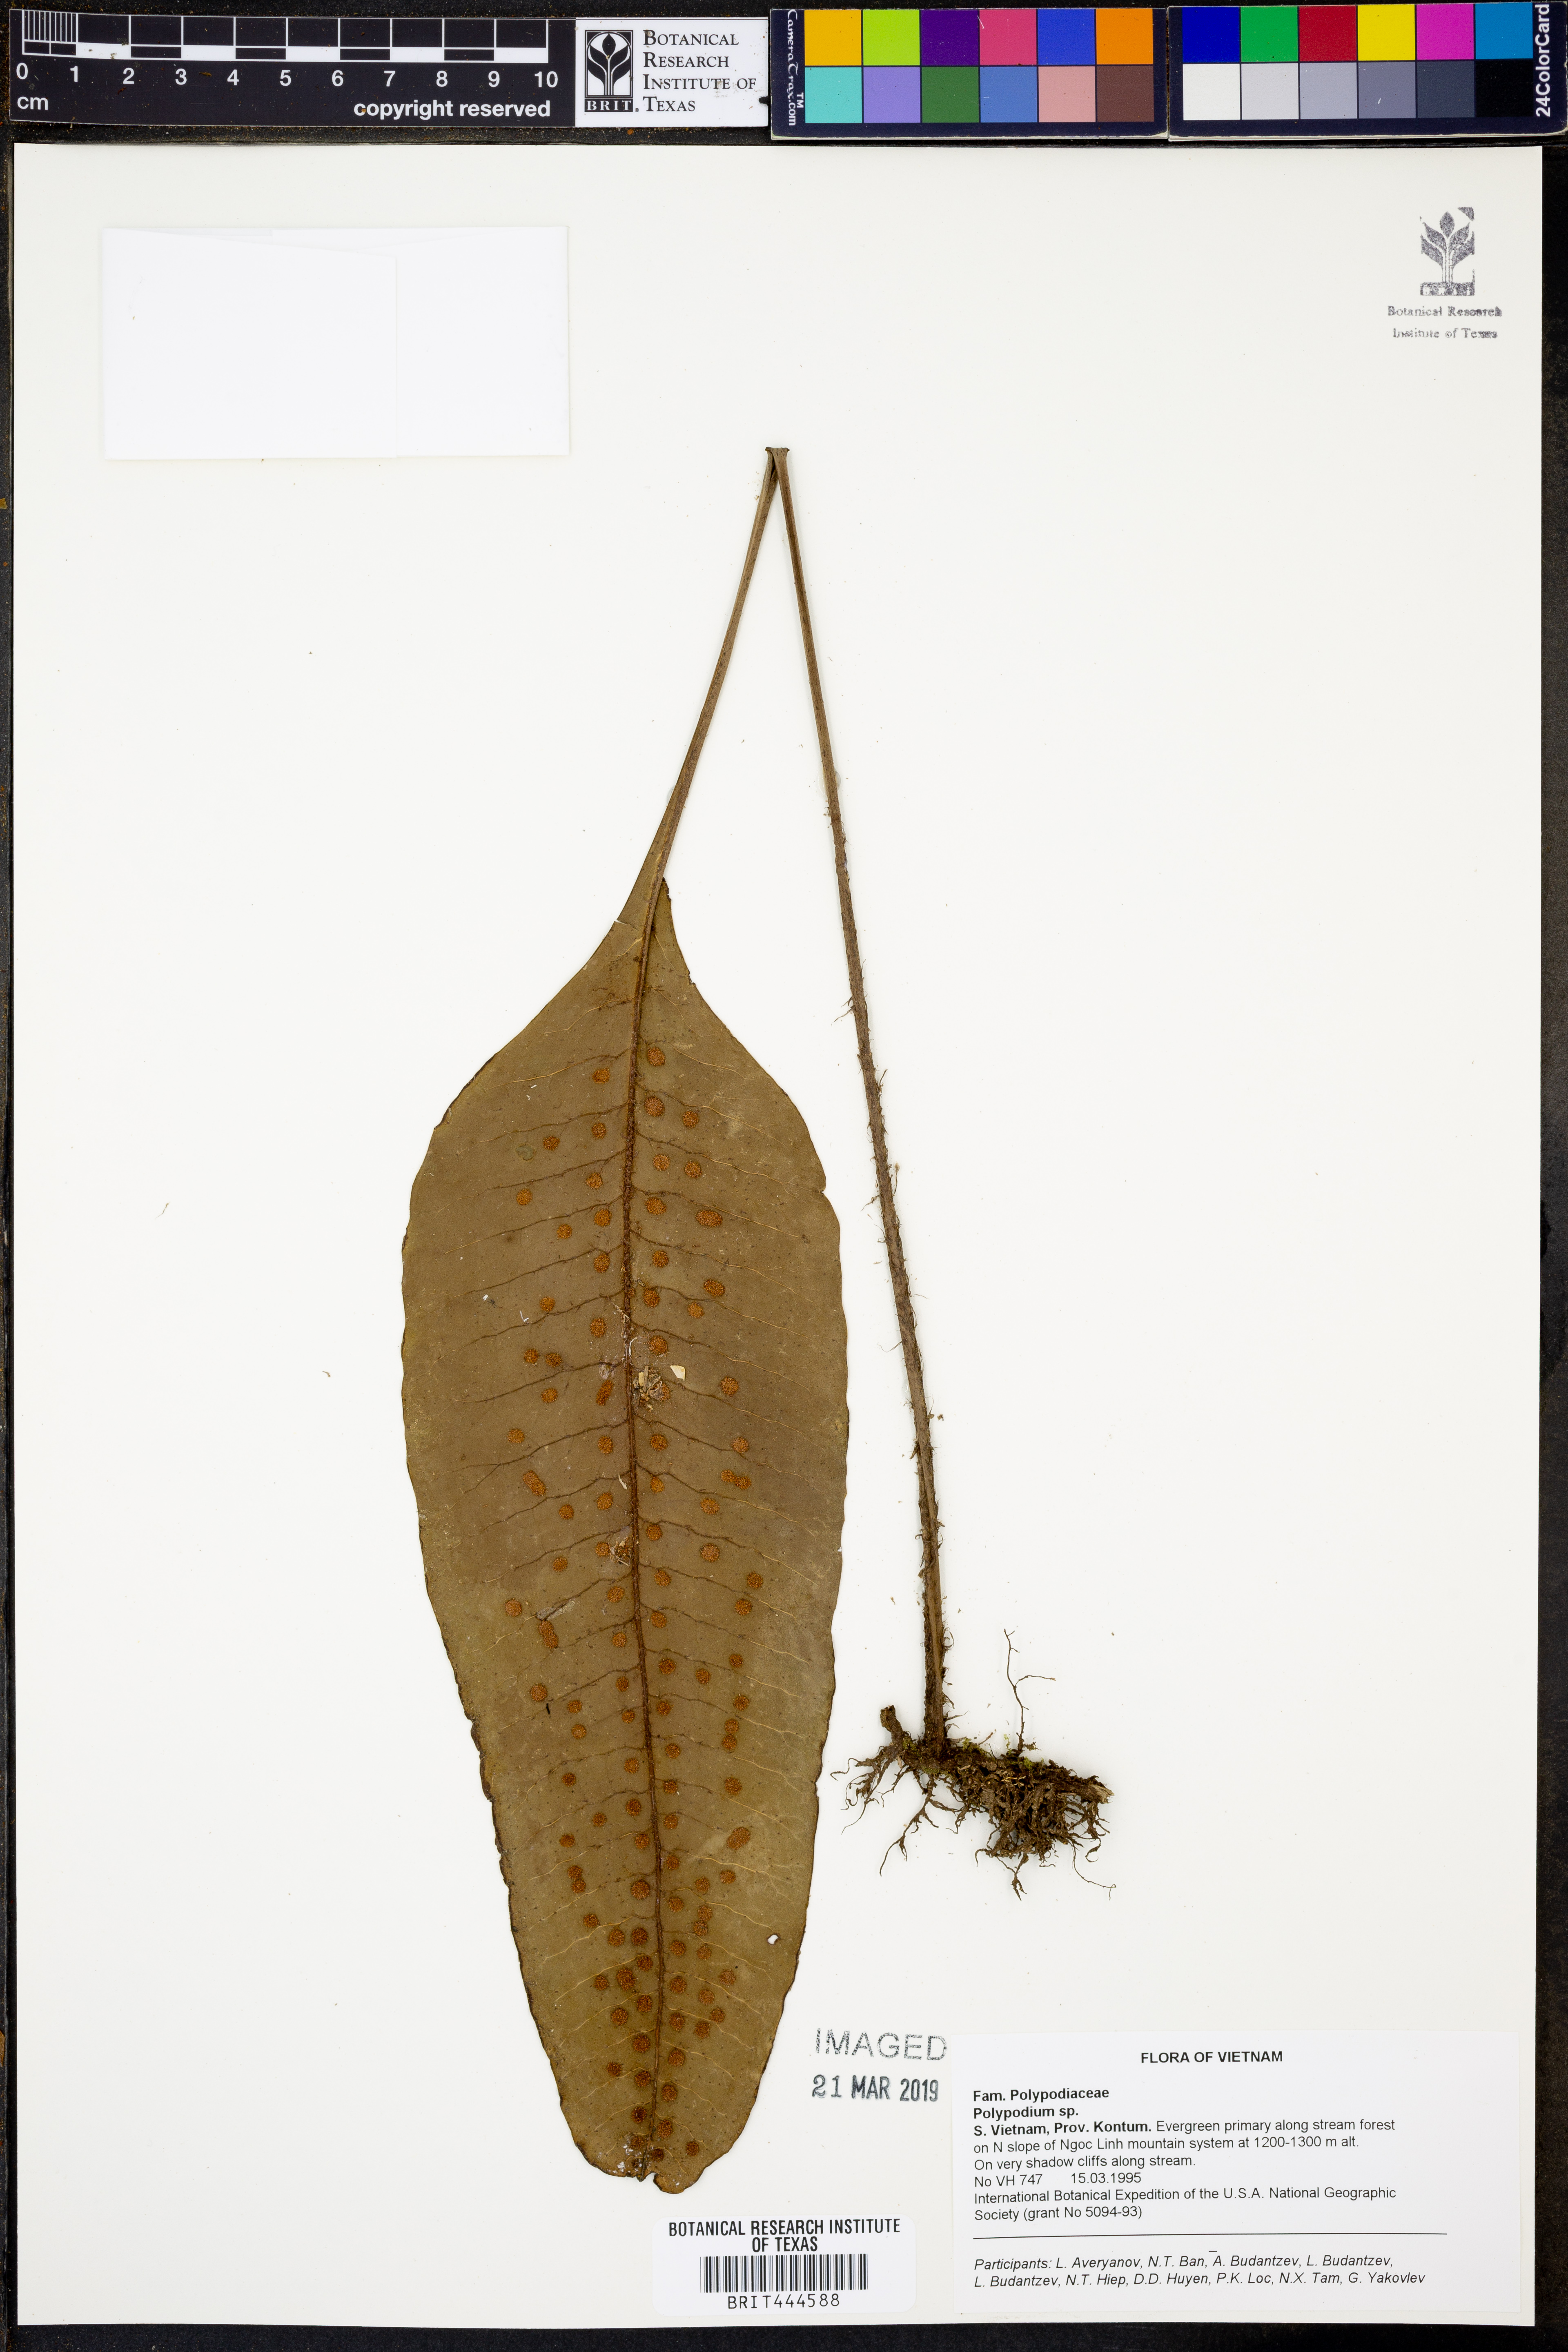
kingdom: Plantae
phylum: Tracheophyta
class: Polypodiopsida
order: Polypodiales
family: Polypodiaceae
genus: Polypodium
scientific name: Polypodium
